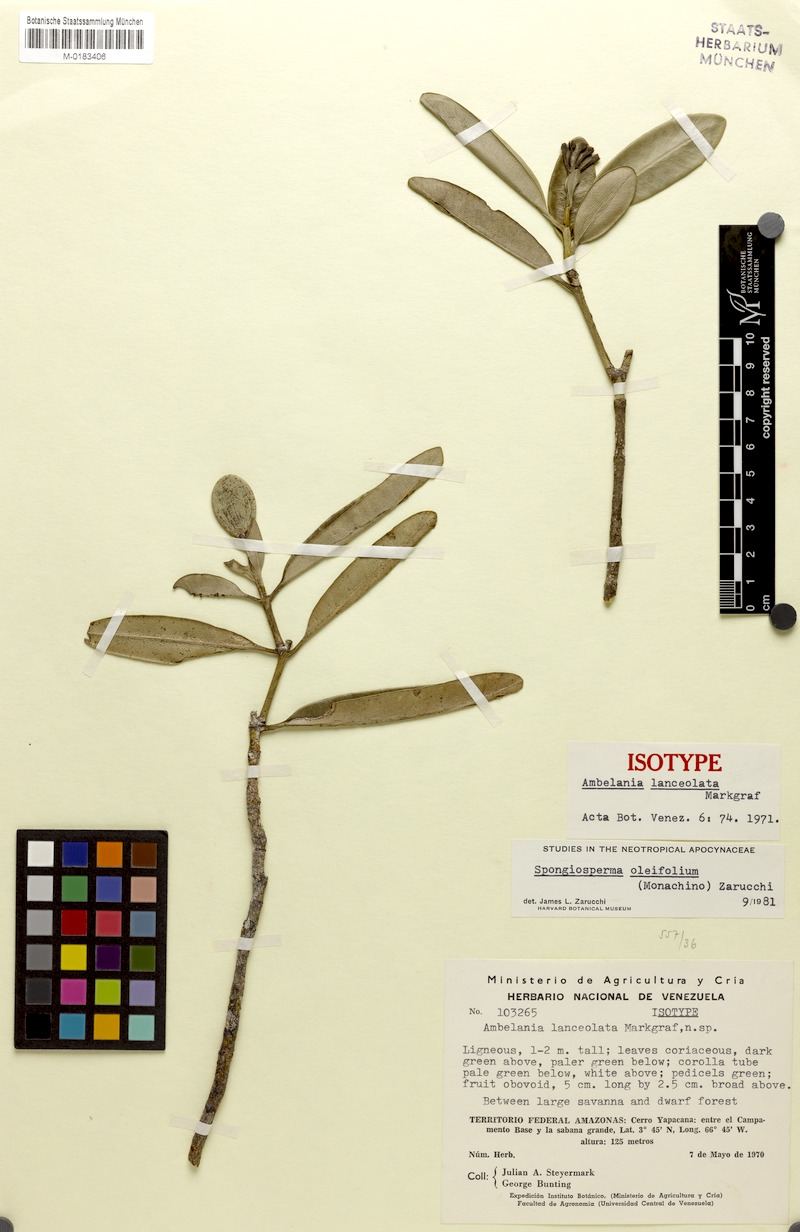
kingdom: Plantae
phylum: Tracheophyta
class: Magnoliopsida
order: Gentianales
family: Apocynaceae
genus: Spongiosperma
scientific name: Spongiosperma oleifolium
